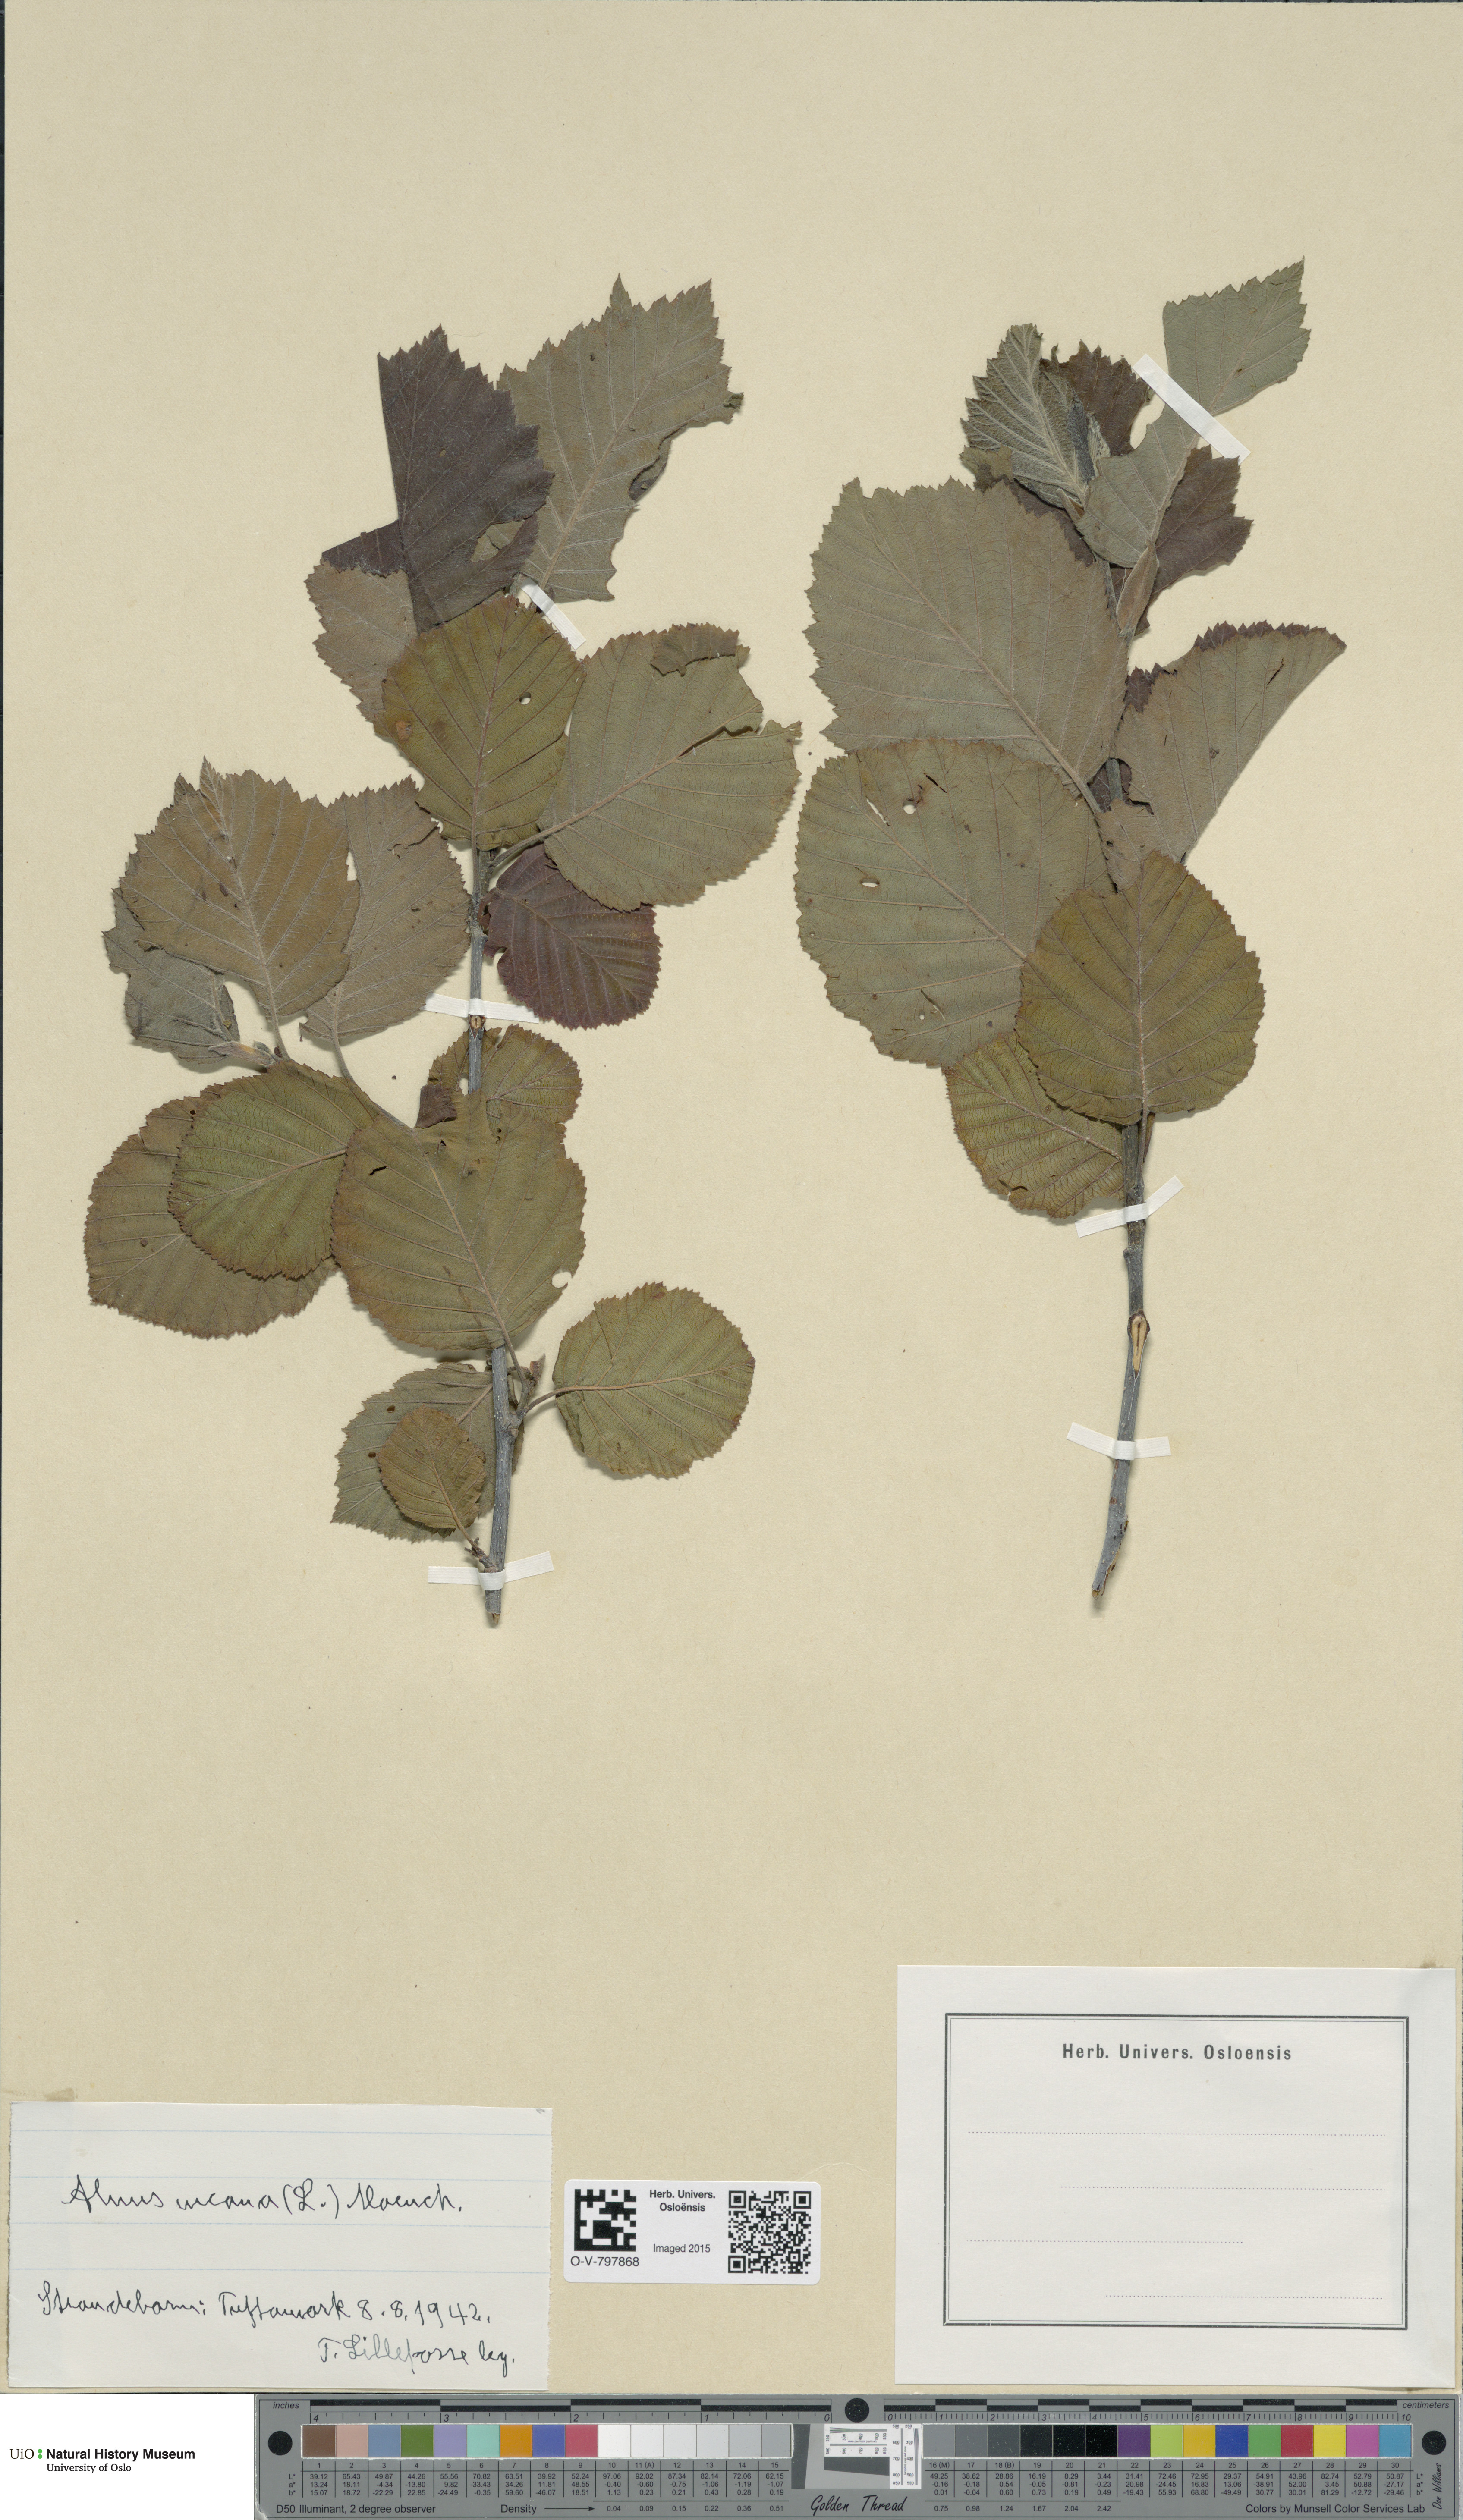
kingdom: Plantae
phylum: Tracheophyta
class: Magnoliopsida
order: Fagales
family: Betulaceae
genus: Alnus
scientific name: Alnus incana
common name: Grey alder
